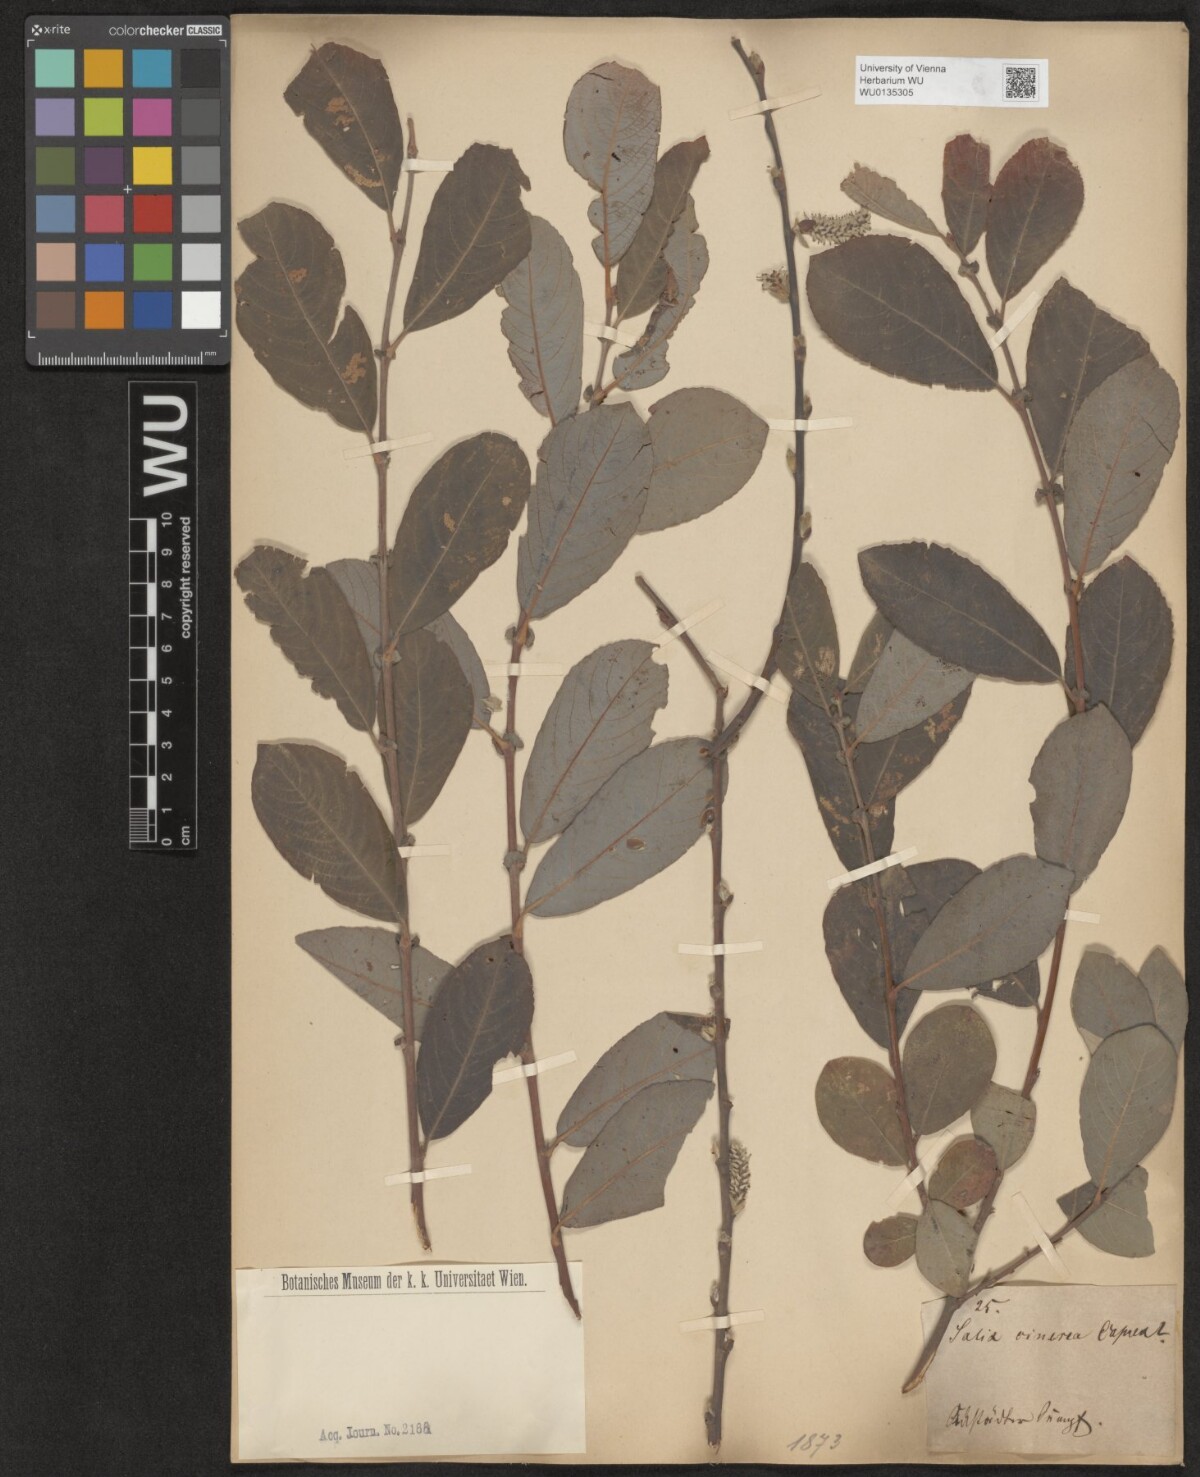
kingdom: Plantae
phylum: Tracheophyta
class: Magnoliopsida
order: Malpighiales
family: Salicaceae
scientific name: Salicaceae
